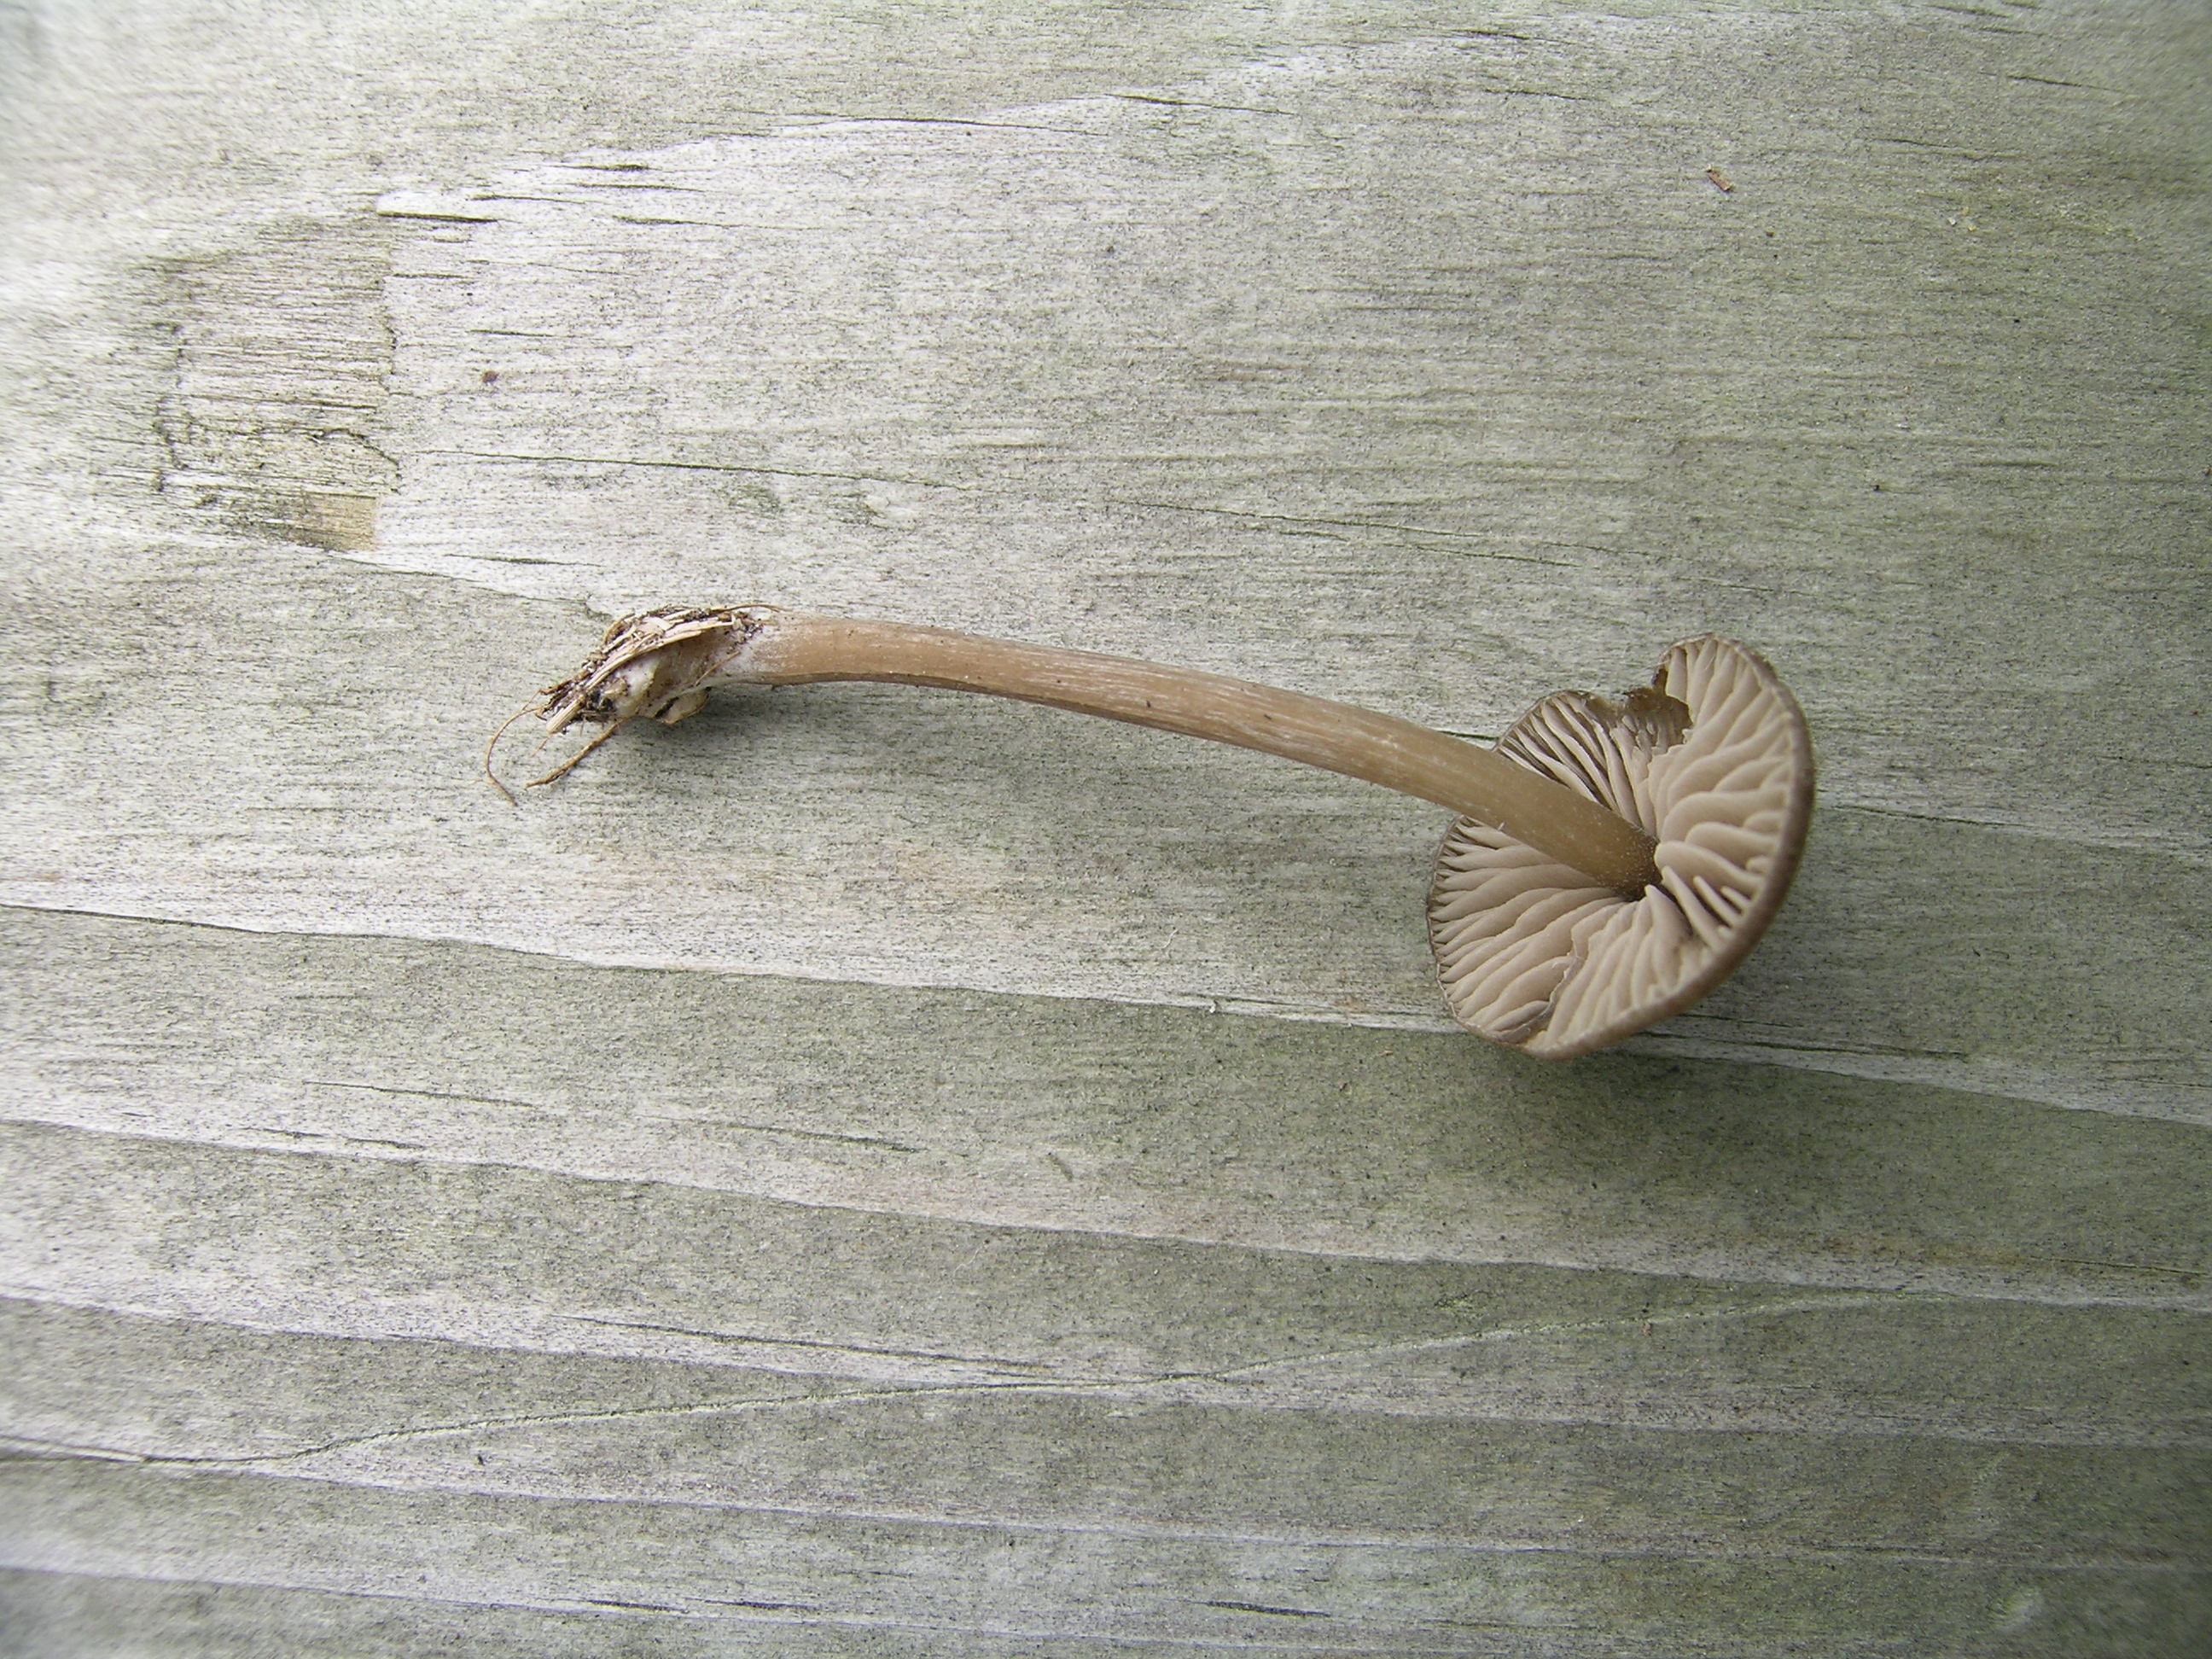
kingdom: Fungi
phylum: Basidiomycota
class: Agaricomycetes
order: Agaricales
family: Entolomataceae
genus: Entoloma
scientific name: Entoloma fernandae
